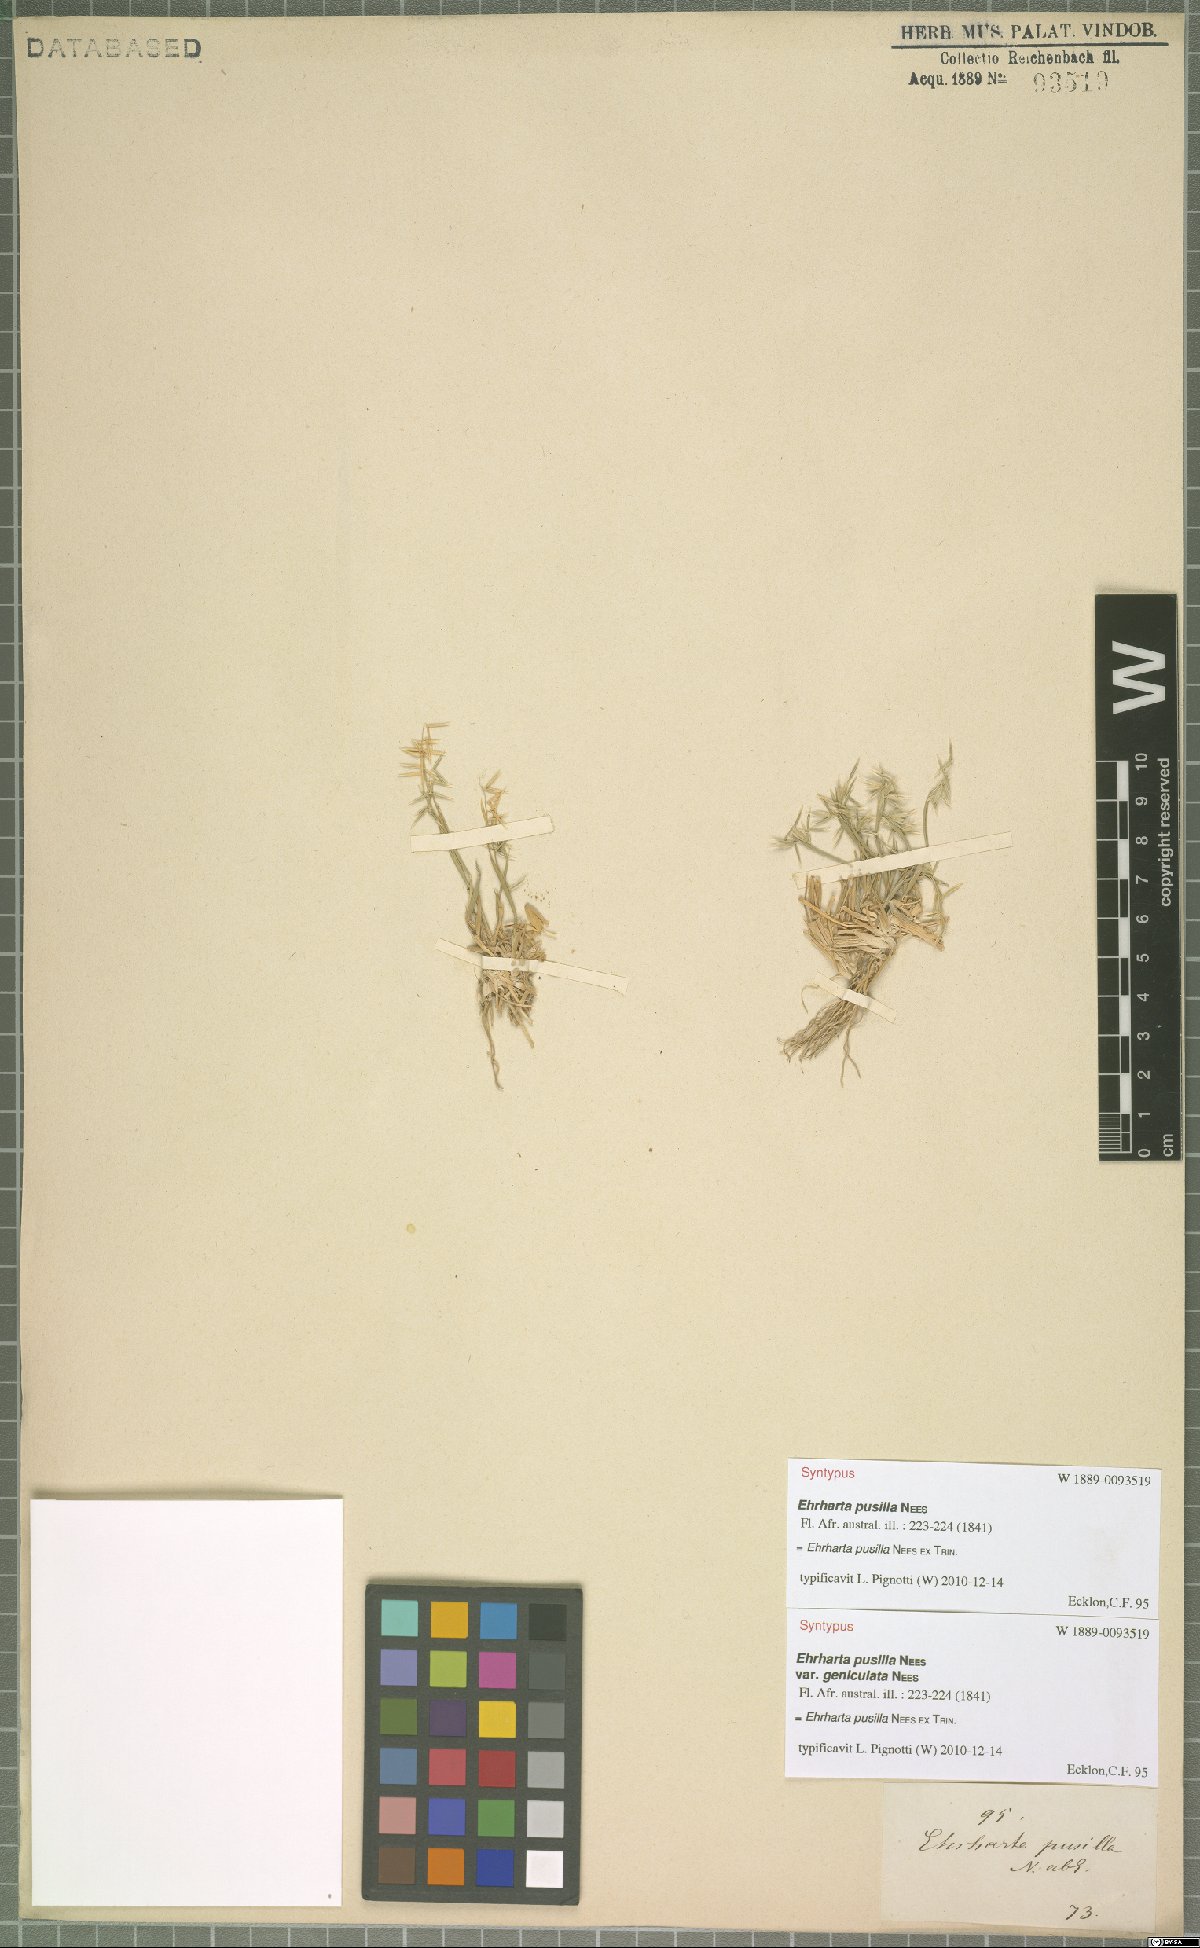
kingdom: Plantae
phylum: Tracheophyta
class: Liliopsida
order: Poales
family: Poaceae
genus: Ehrharta
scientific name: Ehrharta pusilla
